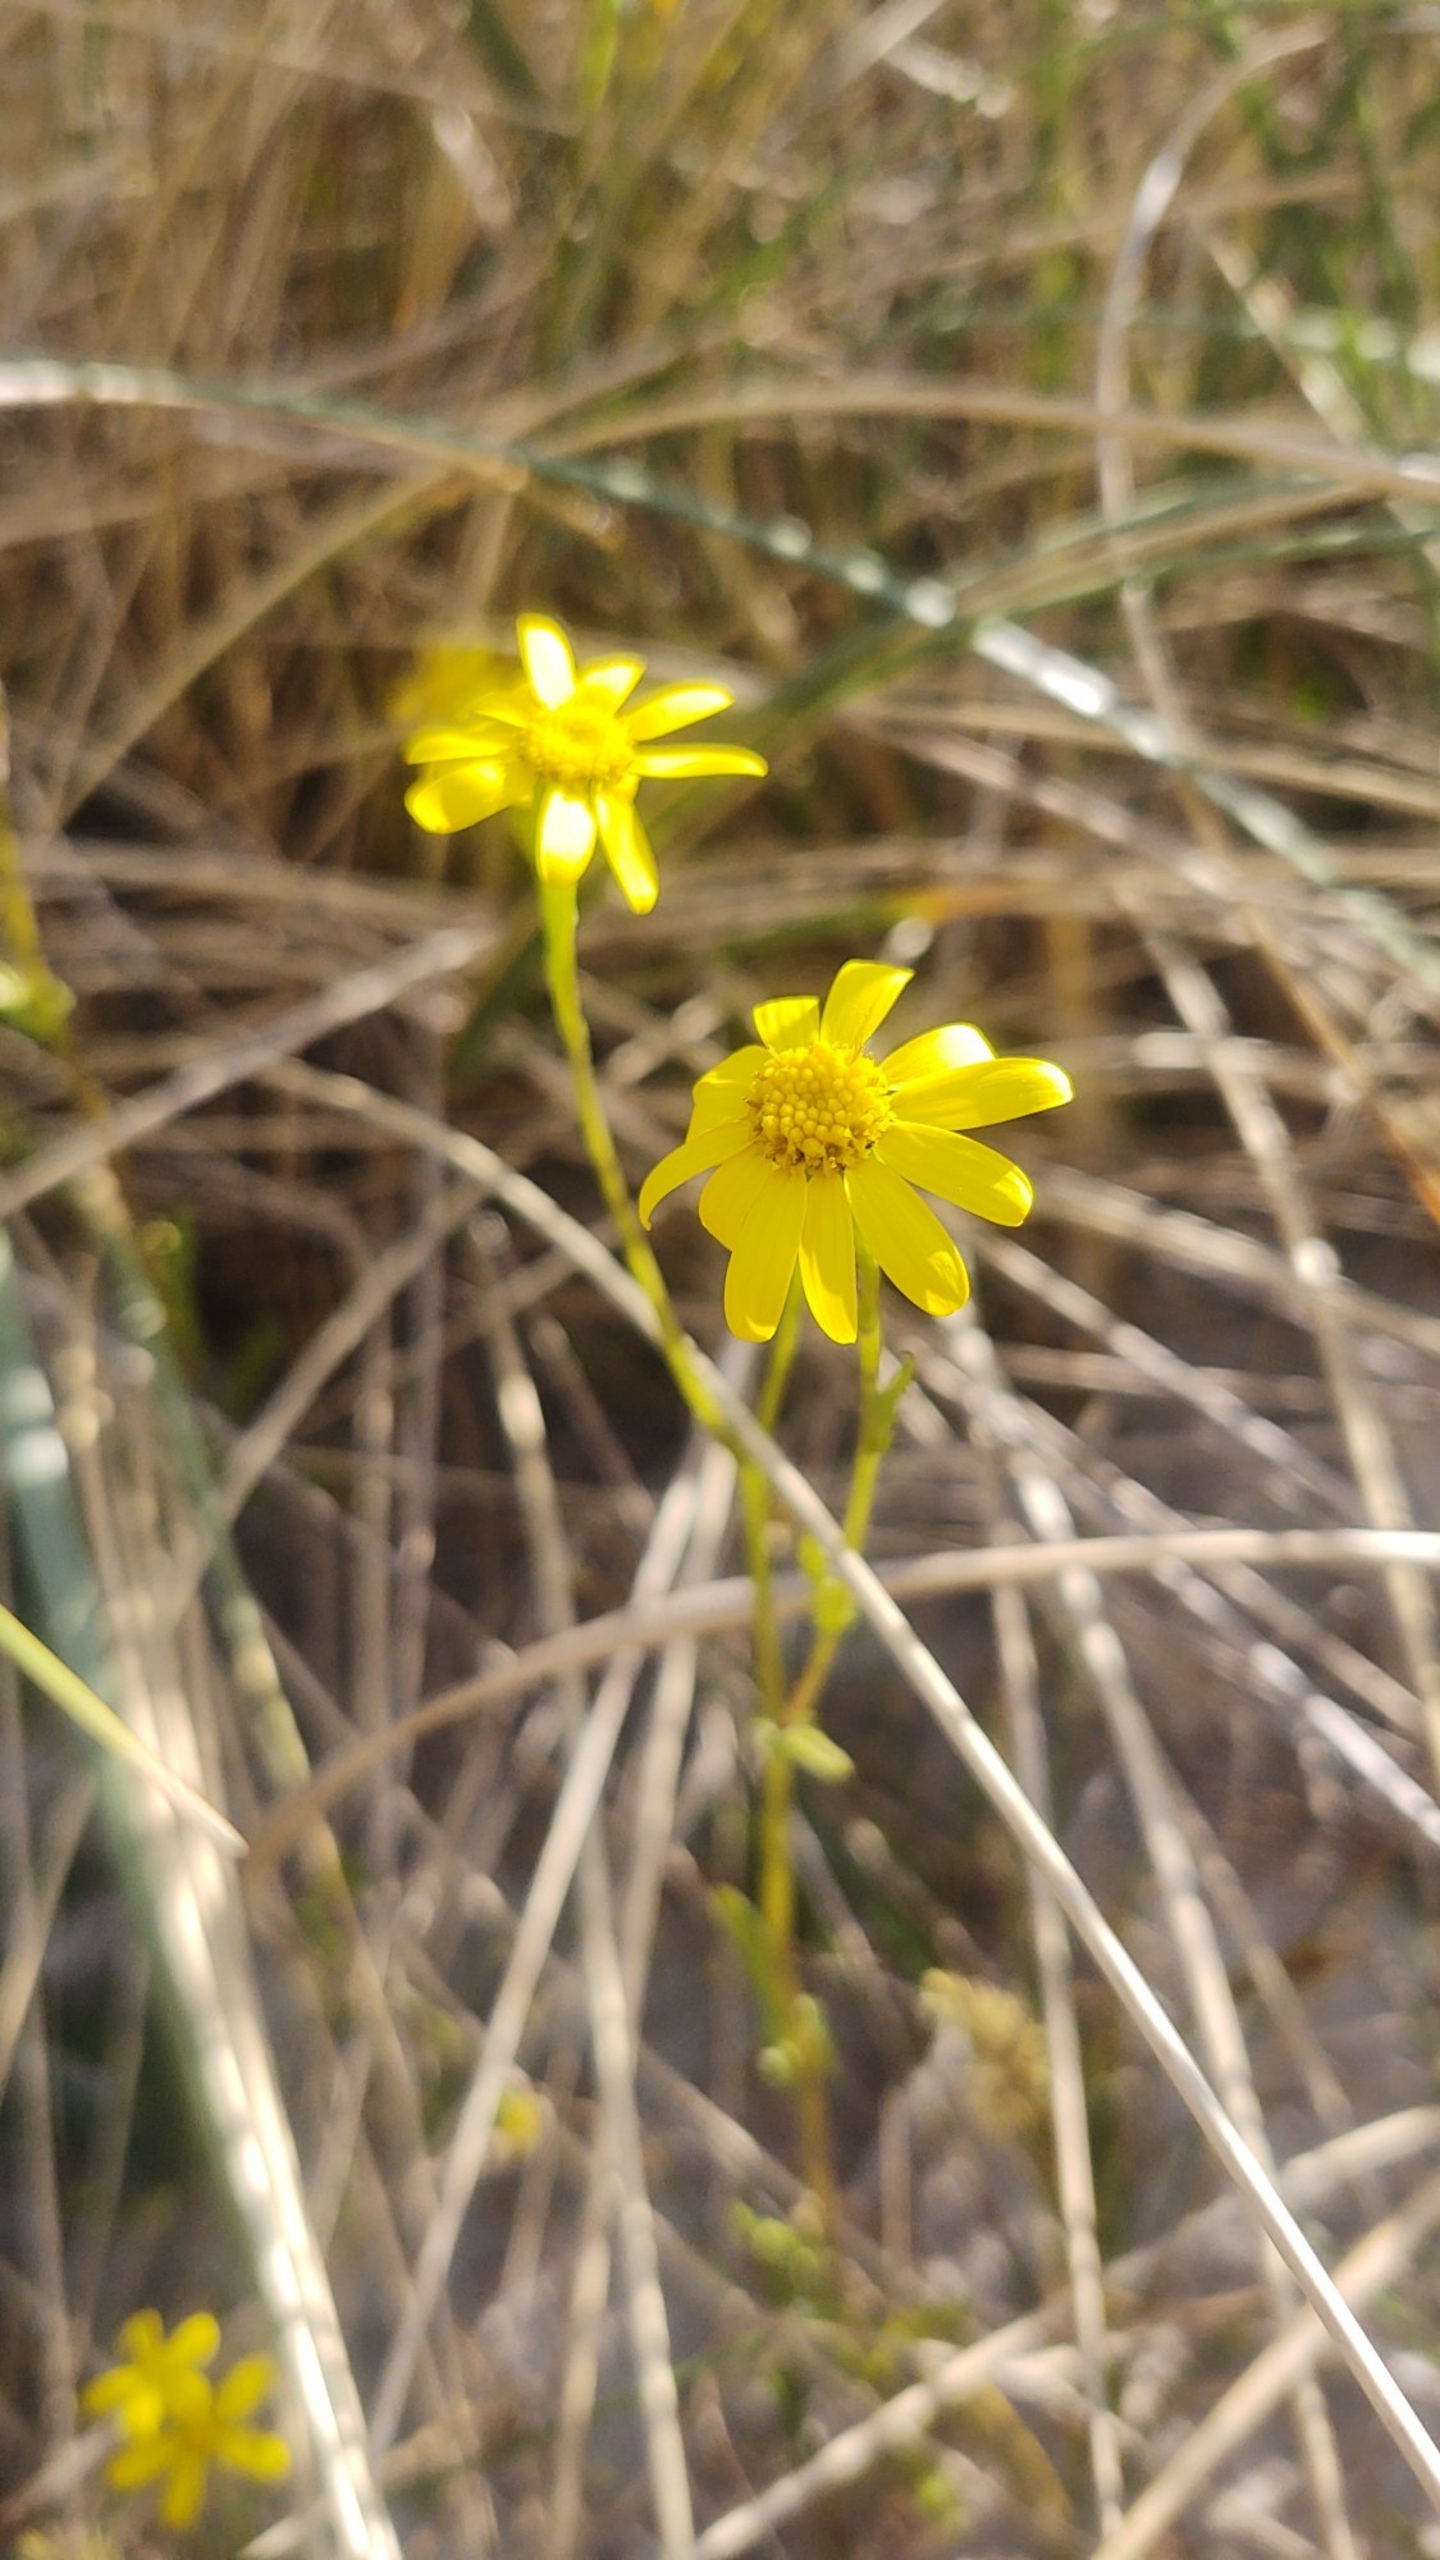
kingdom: Plantae
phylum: Tracheophyta
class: Magnoliopsida
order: Asterales
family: Asteraceae
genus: Senecio
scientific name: Senecio leucanthemifolius
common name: Vår-brandbæger
